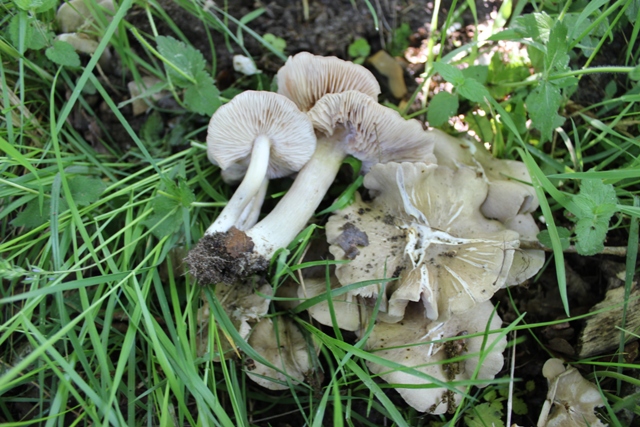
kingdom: Fungi
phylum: Basidiomycota
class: Agaricomycetes
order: Agaricales
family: Entolomataceae
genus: Entoloma
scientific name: Entoloma clypeatum
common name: flammet rødblad
